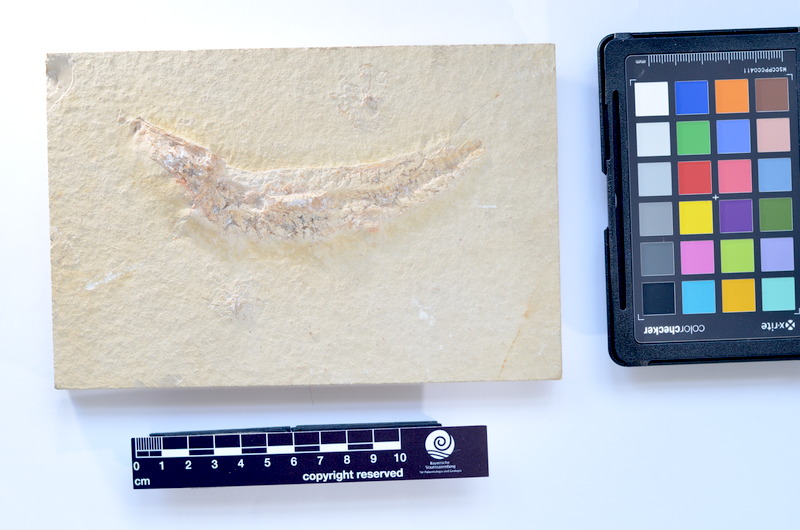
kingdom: Animalia
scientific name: Animalia
